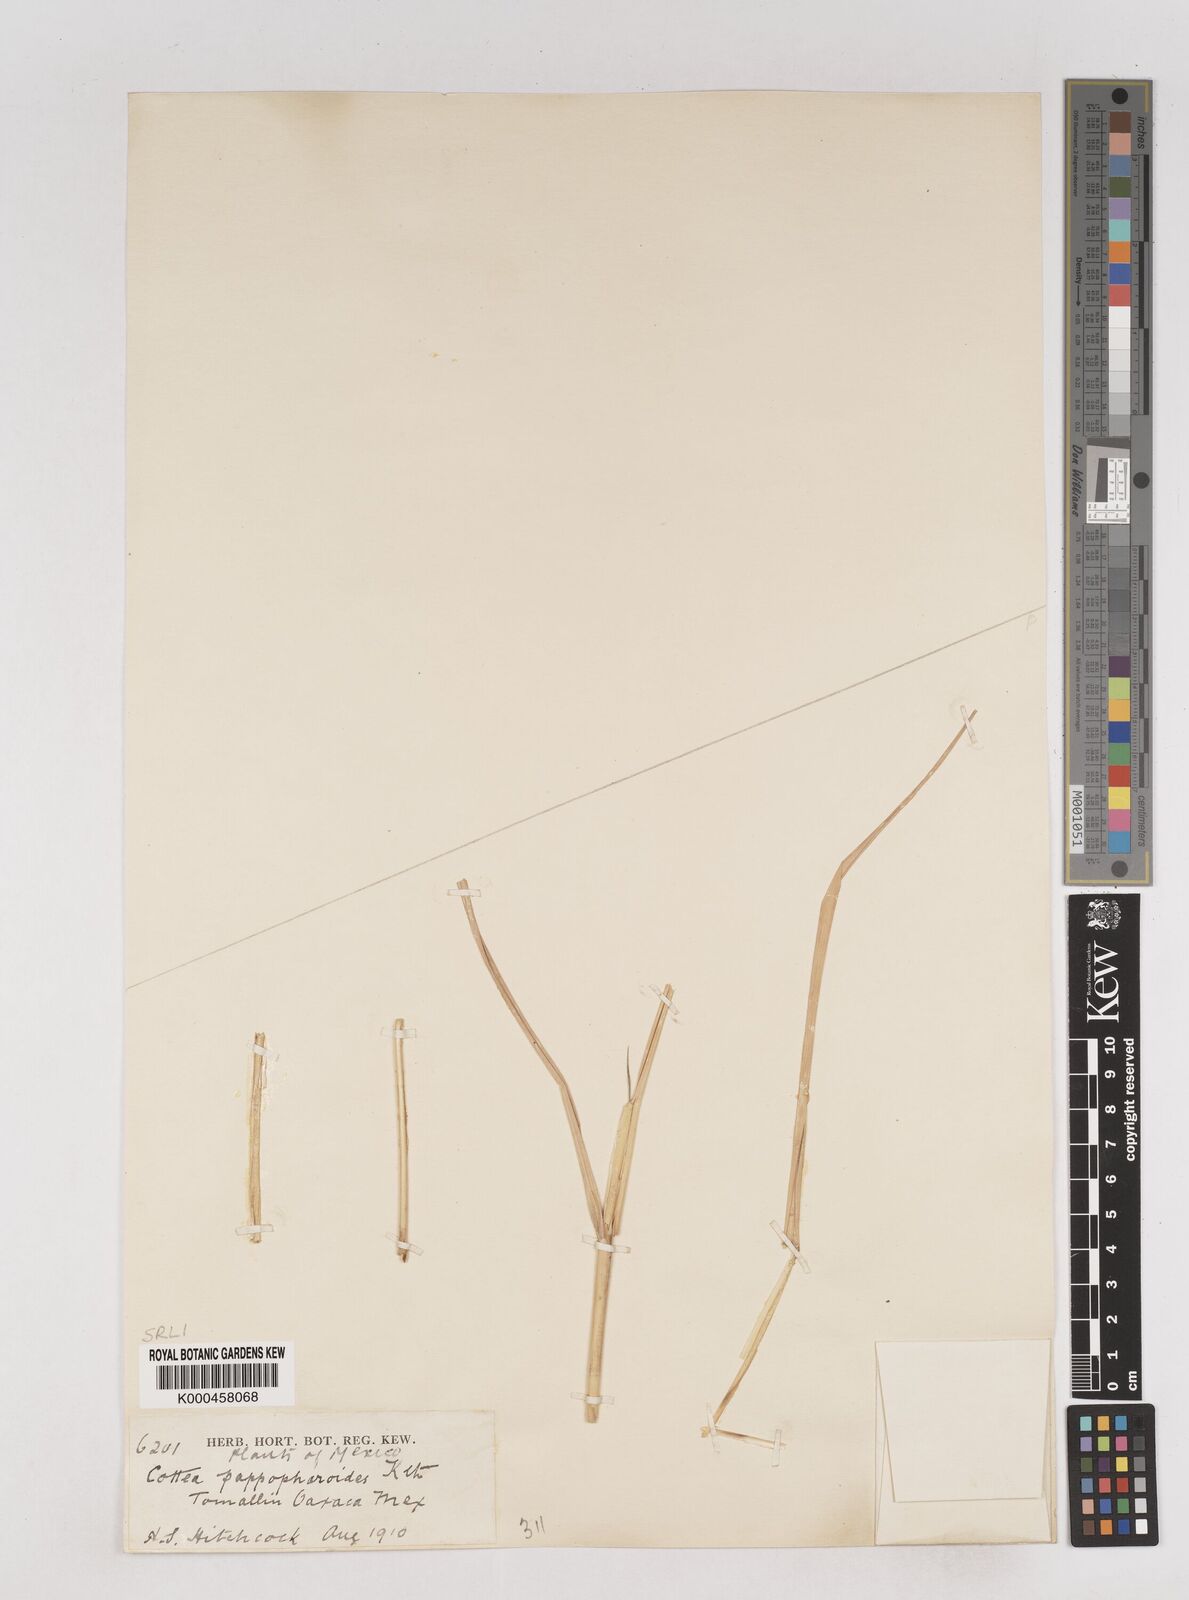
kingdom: Plantae
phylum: Tracheophyta
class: Liliopsida
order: Poales
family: Poaceae
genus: Cottea
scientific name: Cottea
